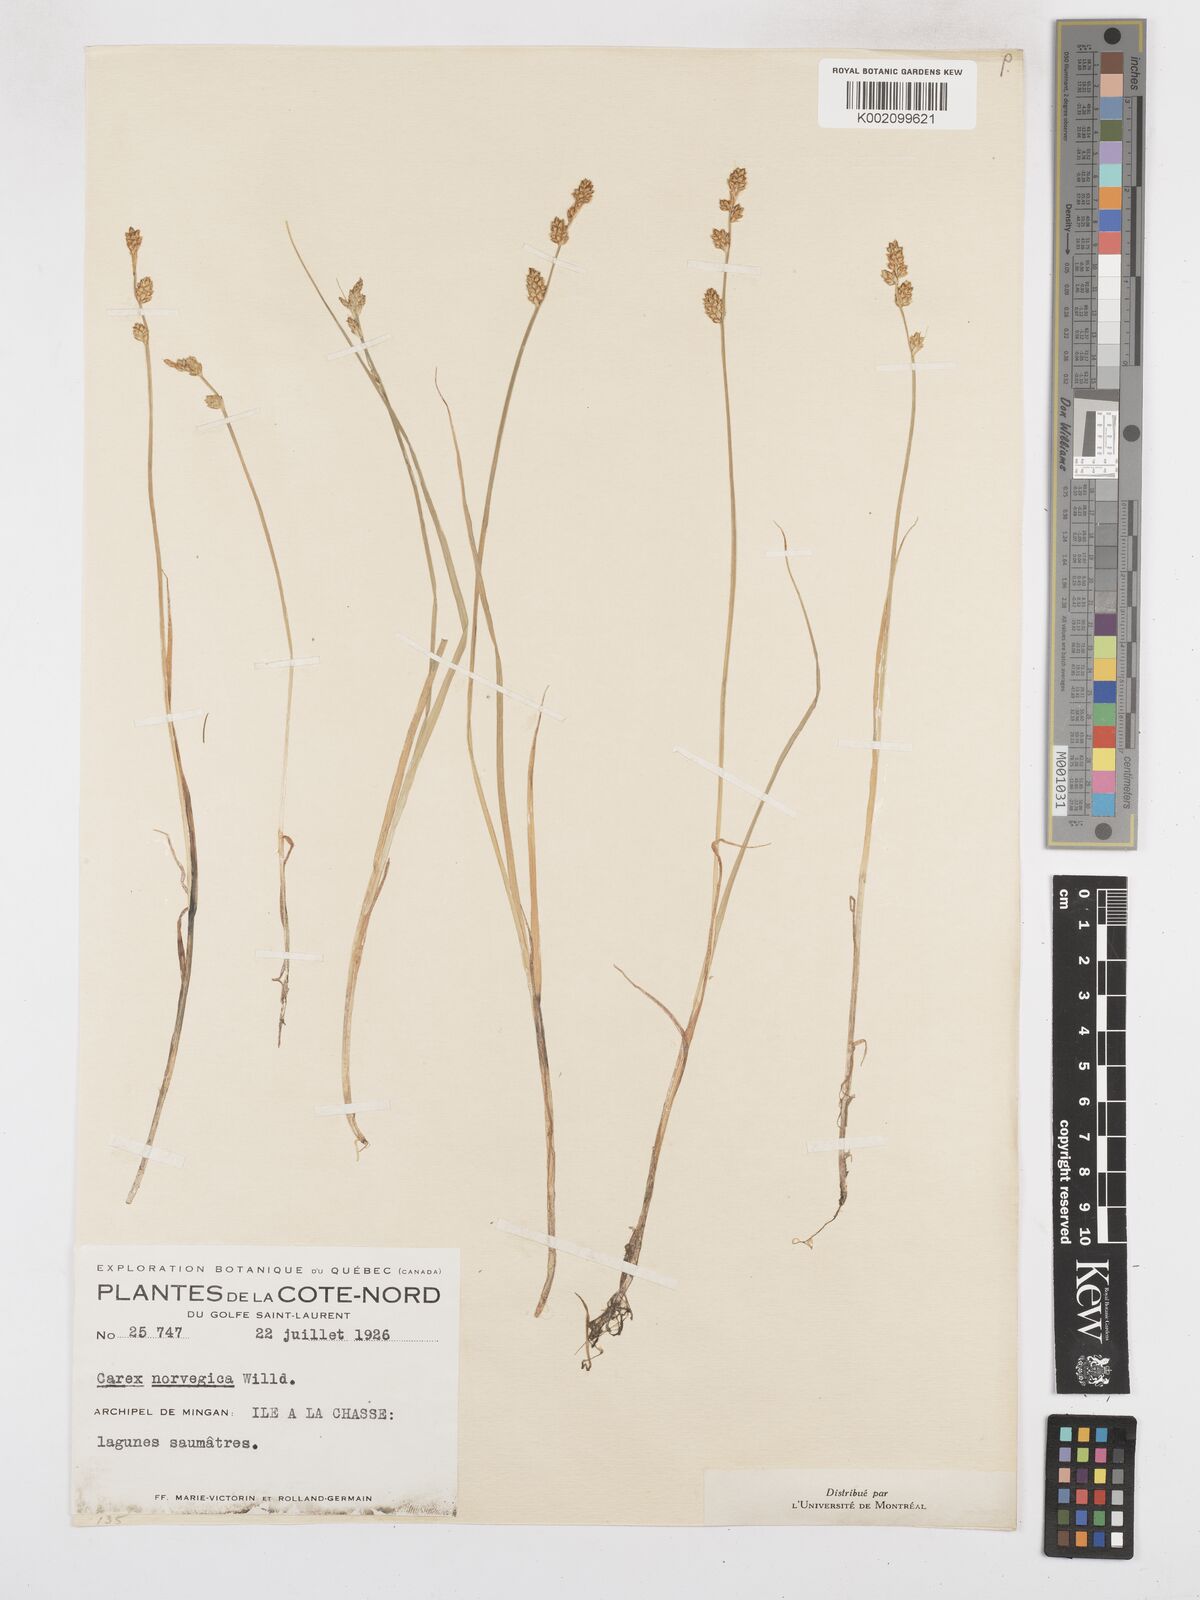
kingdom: Plantae
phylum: Tracheophyta
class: Liliopsida
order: Poales
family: Cyperaceae
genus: Carex
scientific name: Carex mackenziei
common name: Mackenzie's sedge
